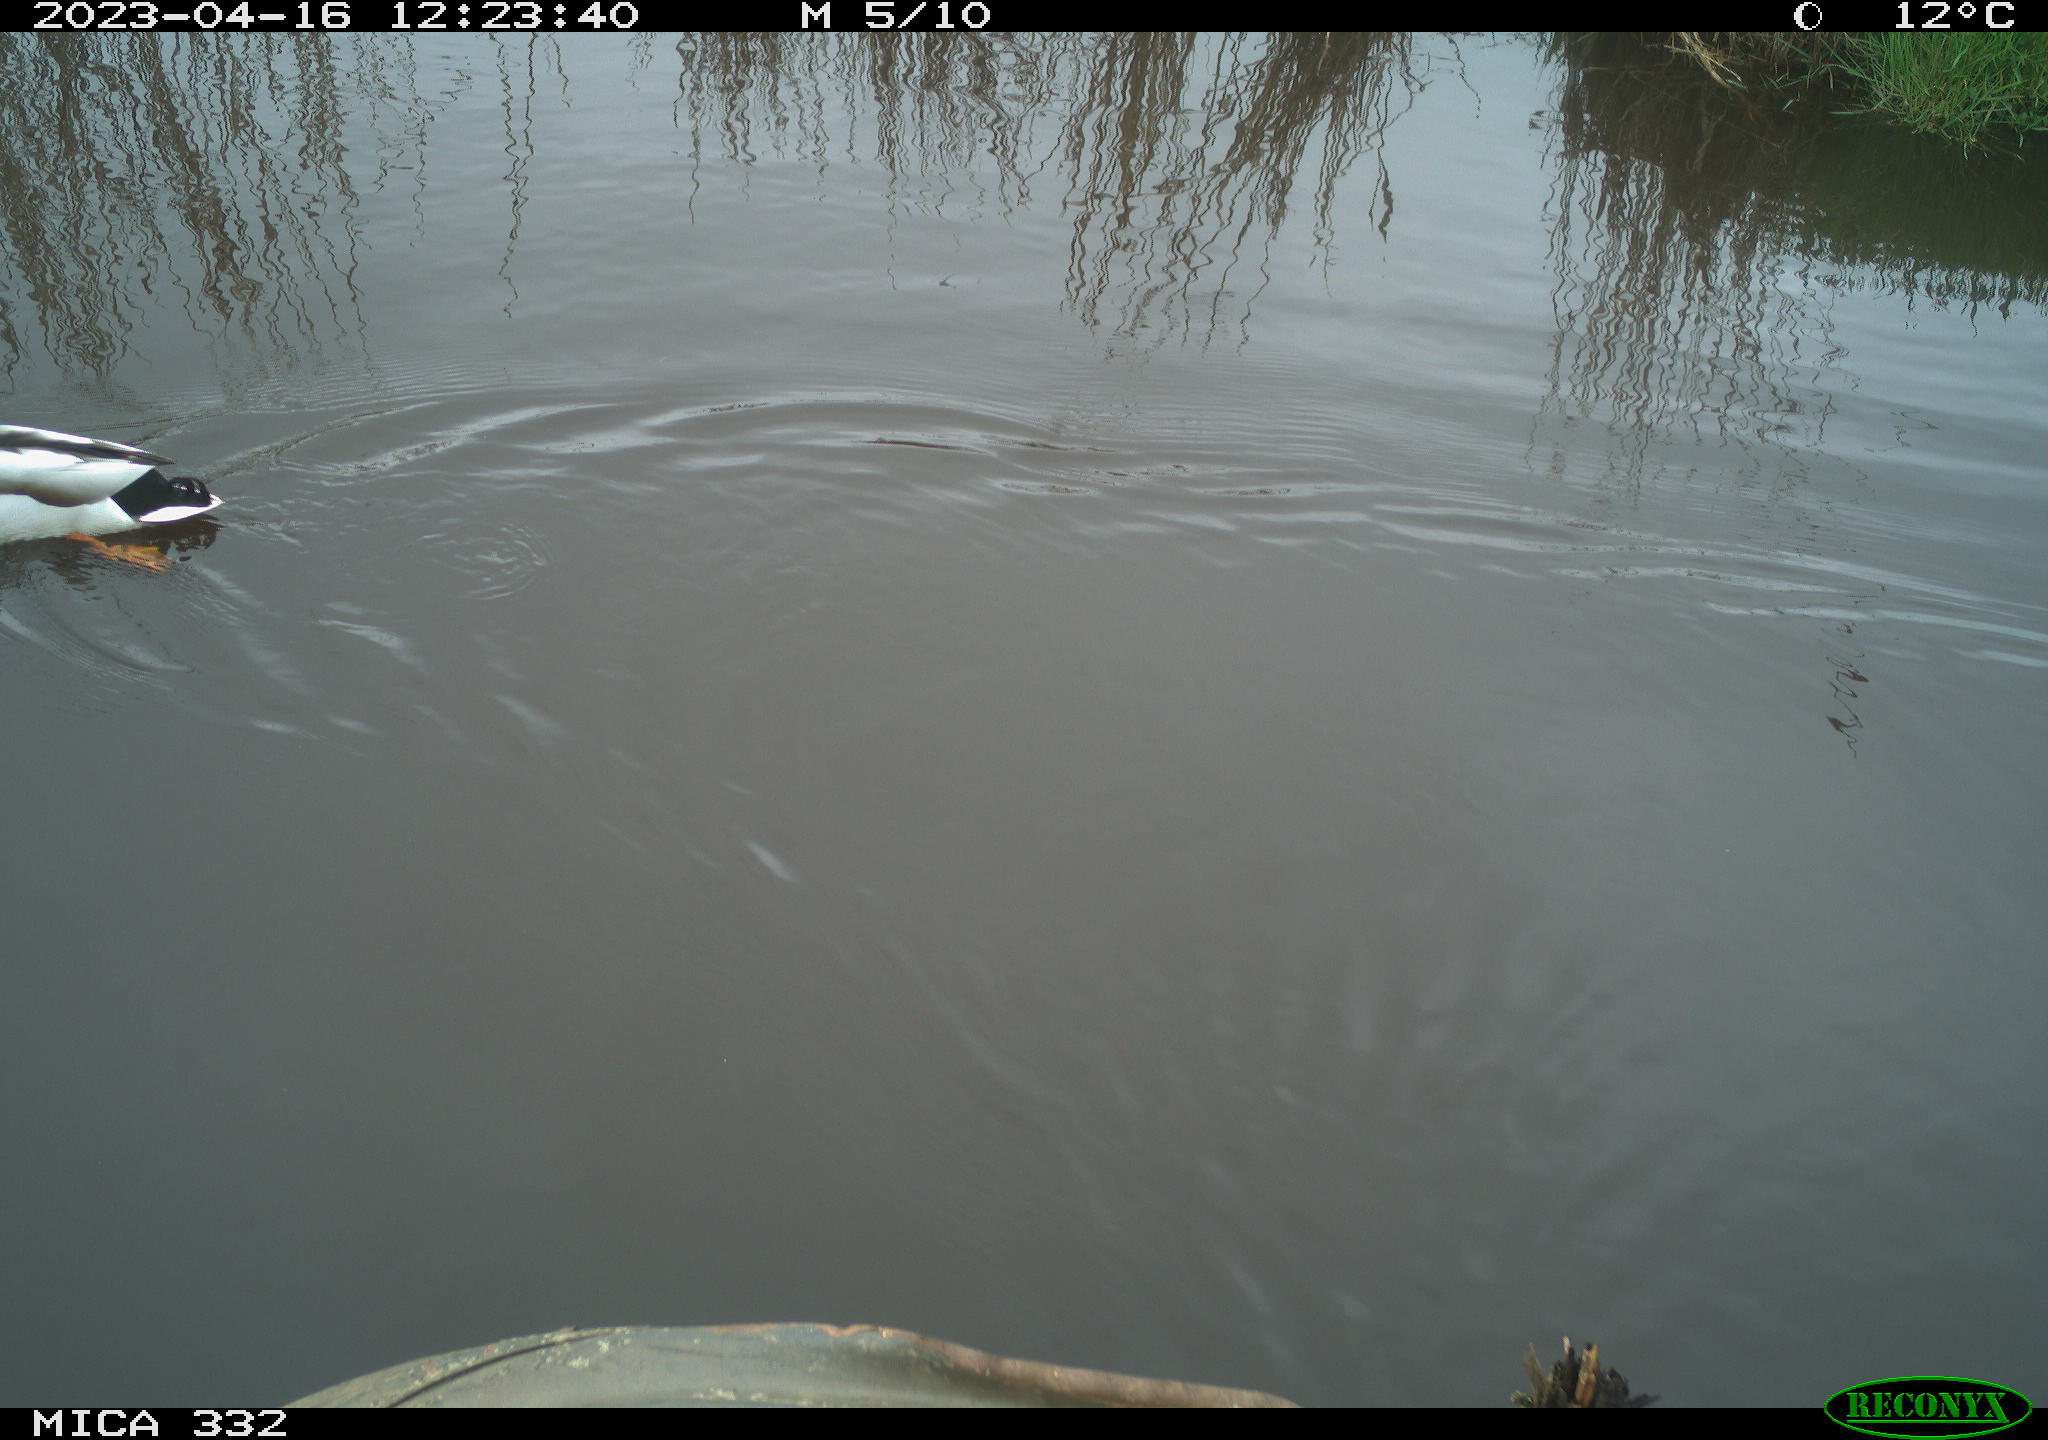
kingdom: Animalia
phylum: Chordata
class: Aves
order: Anseriformes
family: Anatidae
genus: Anas
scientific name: Anas
